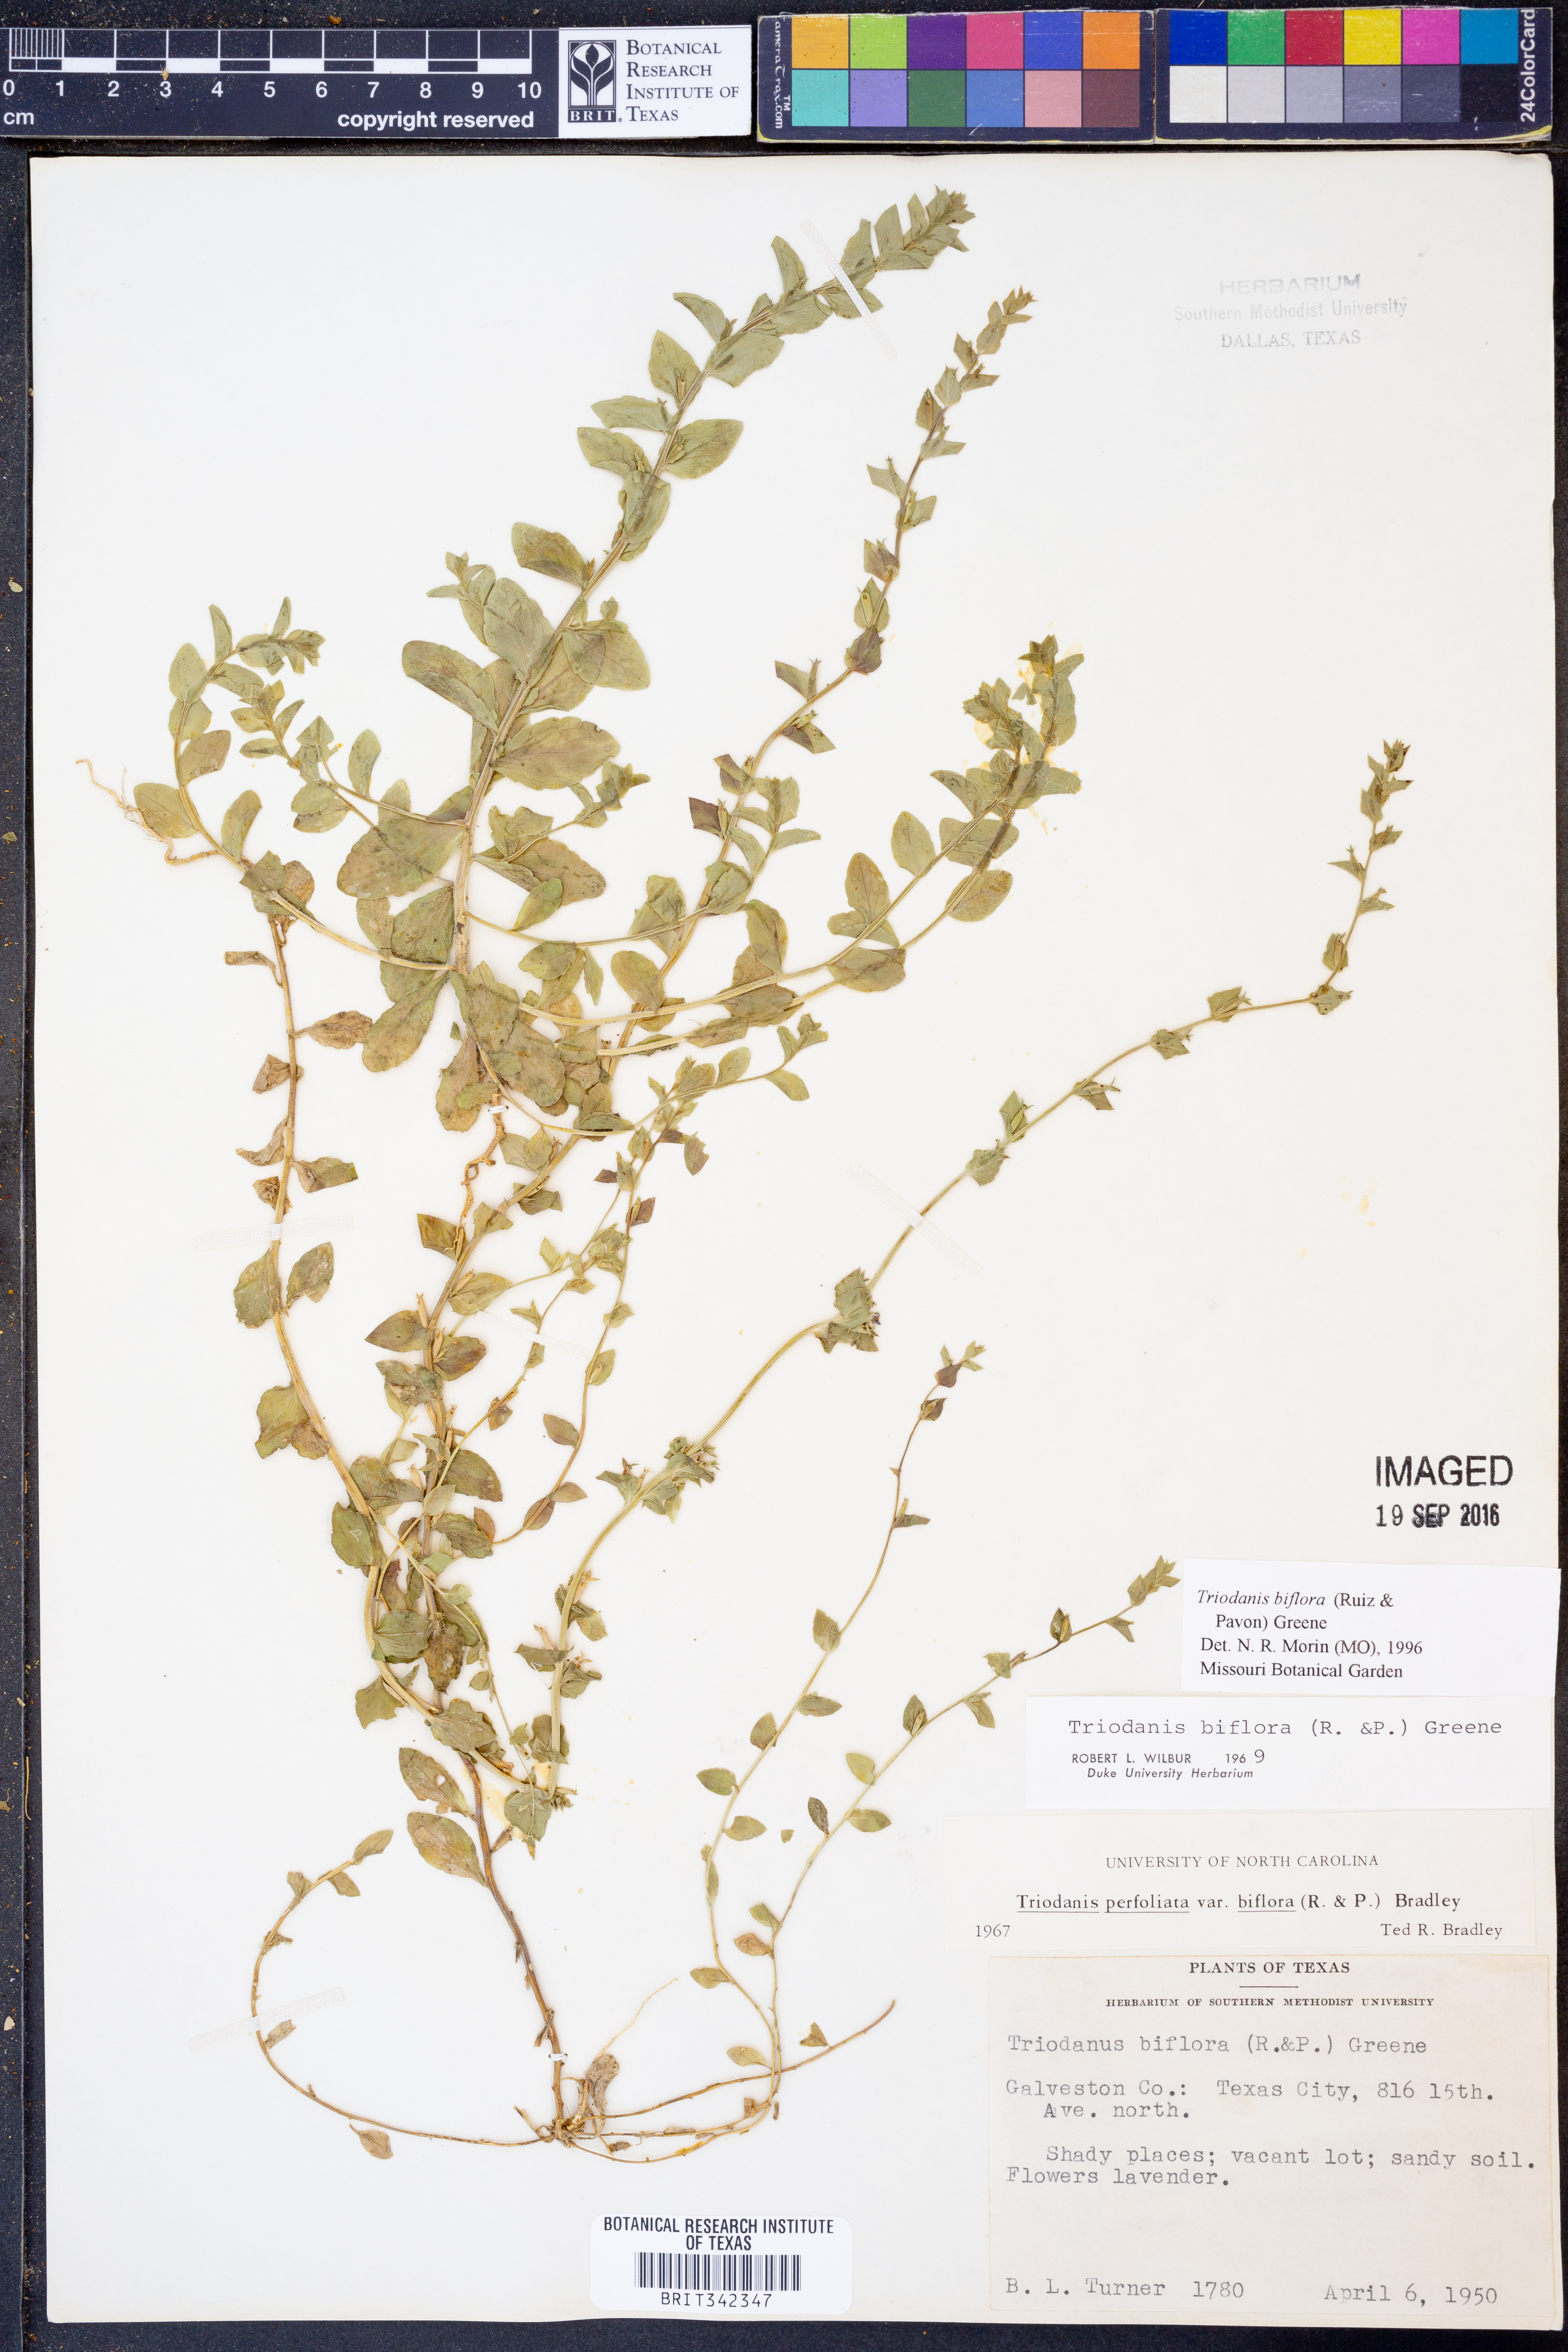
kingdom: Plantae
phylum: Tracheophyta
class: Magnoliopsida
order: Asterales
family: Campanulaceae
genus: Triodanis
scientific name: Triodanis perfoliata
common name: Clasping venus' looking-glass
